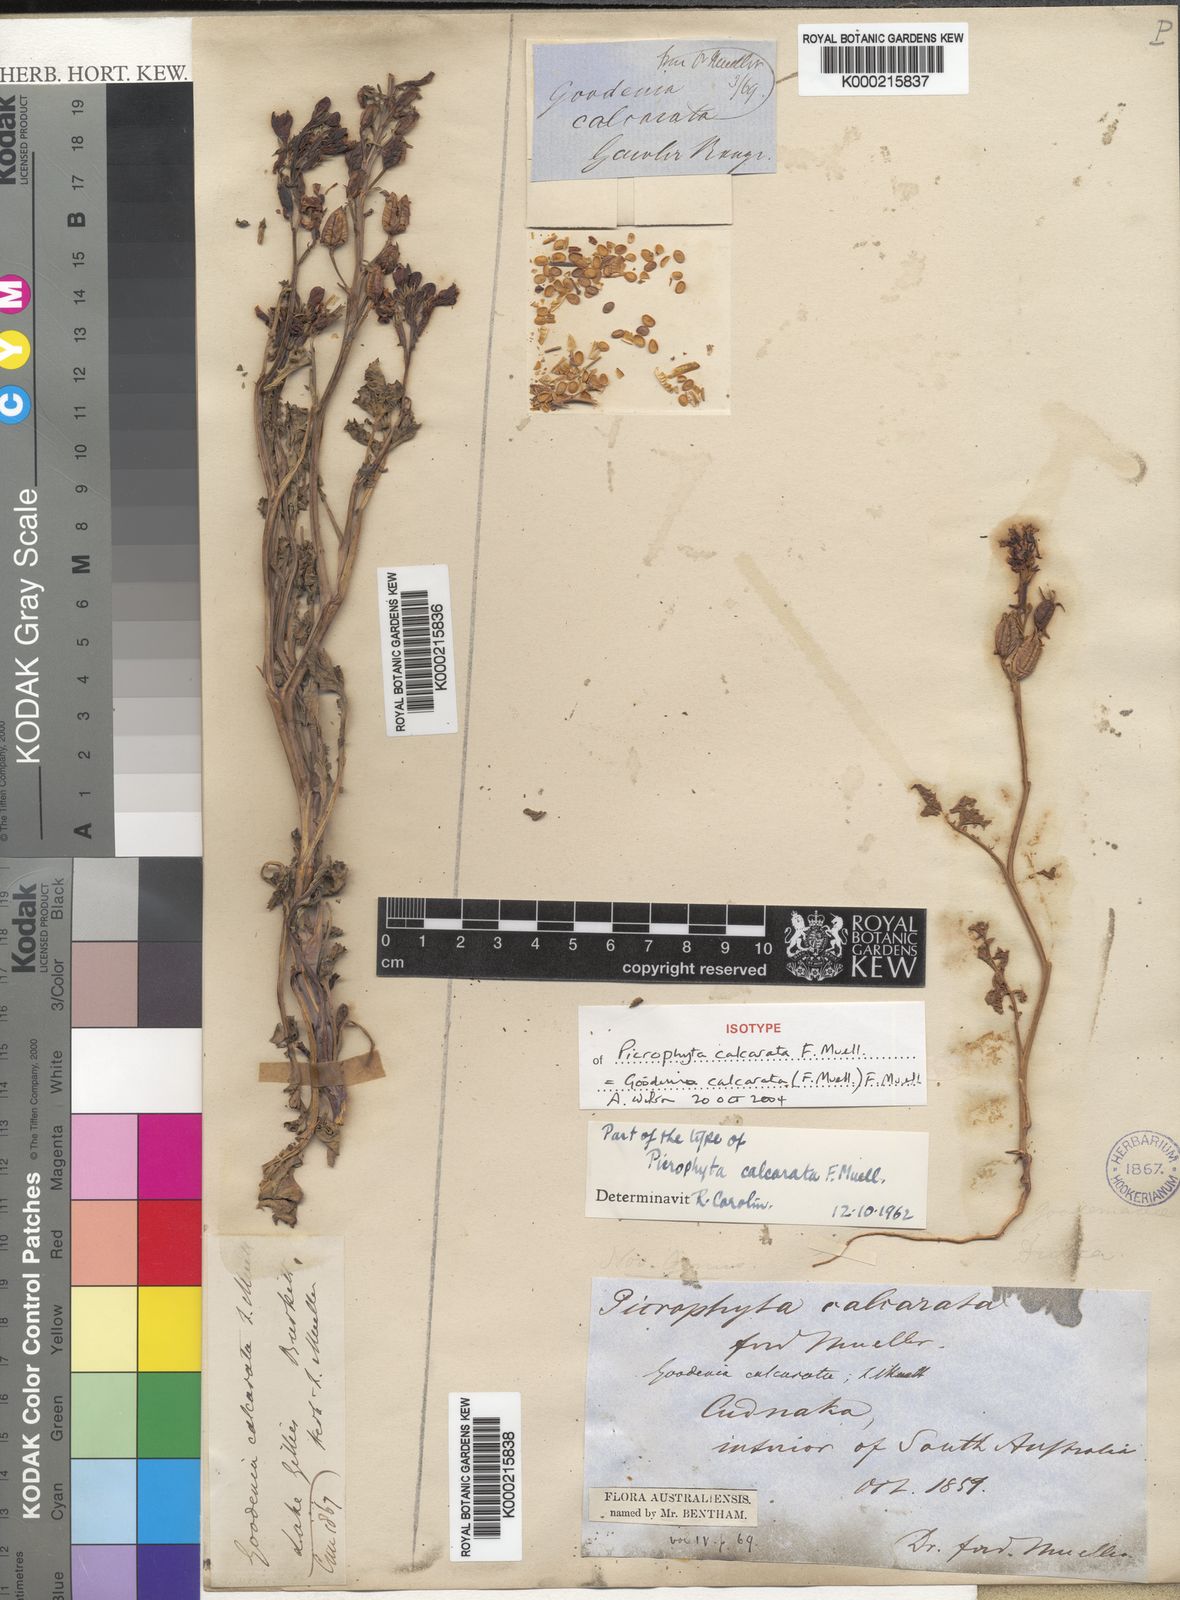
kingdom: Plantae
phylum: Tracheophyta
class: Magnoliopsida
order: Asterales
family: Goodeniaceae
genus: Goodenia
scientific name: Goodenia calcarata
